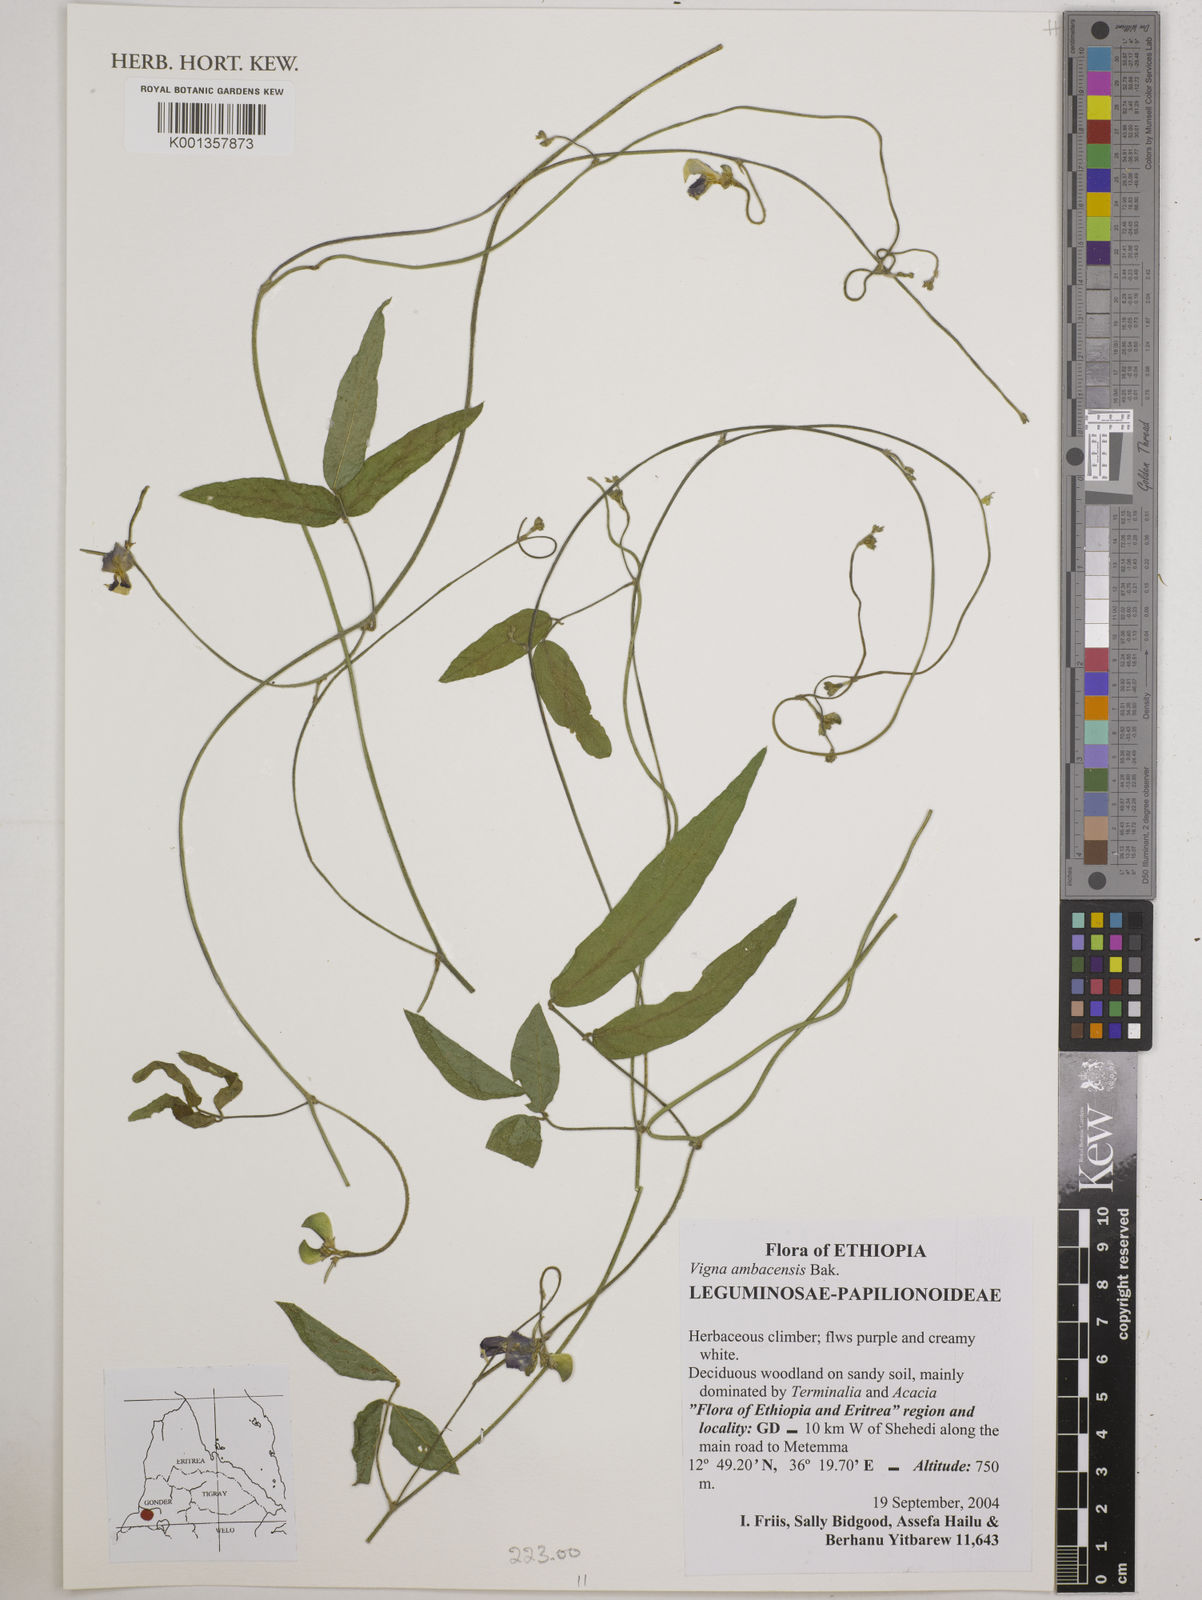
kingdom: Plantae
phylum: Tracheophyta
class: Magnoliopsida
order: Fabales
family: Fabaceae
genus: Vigna
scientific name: Vigna ambacensis
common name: Tsarkiyan zomo
